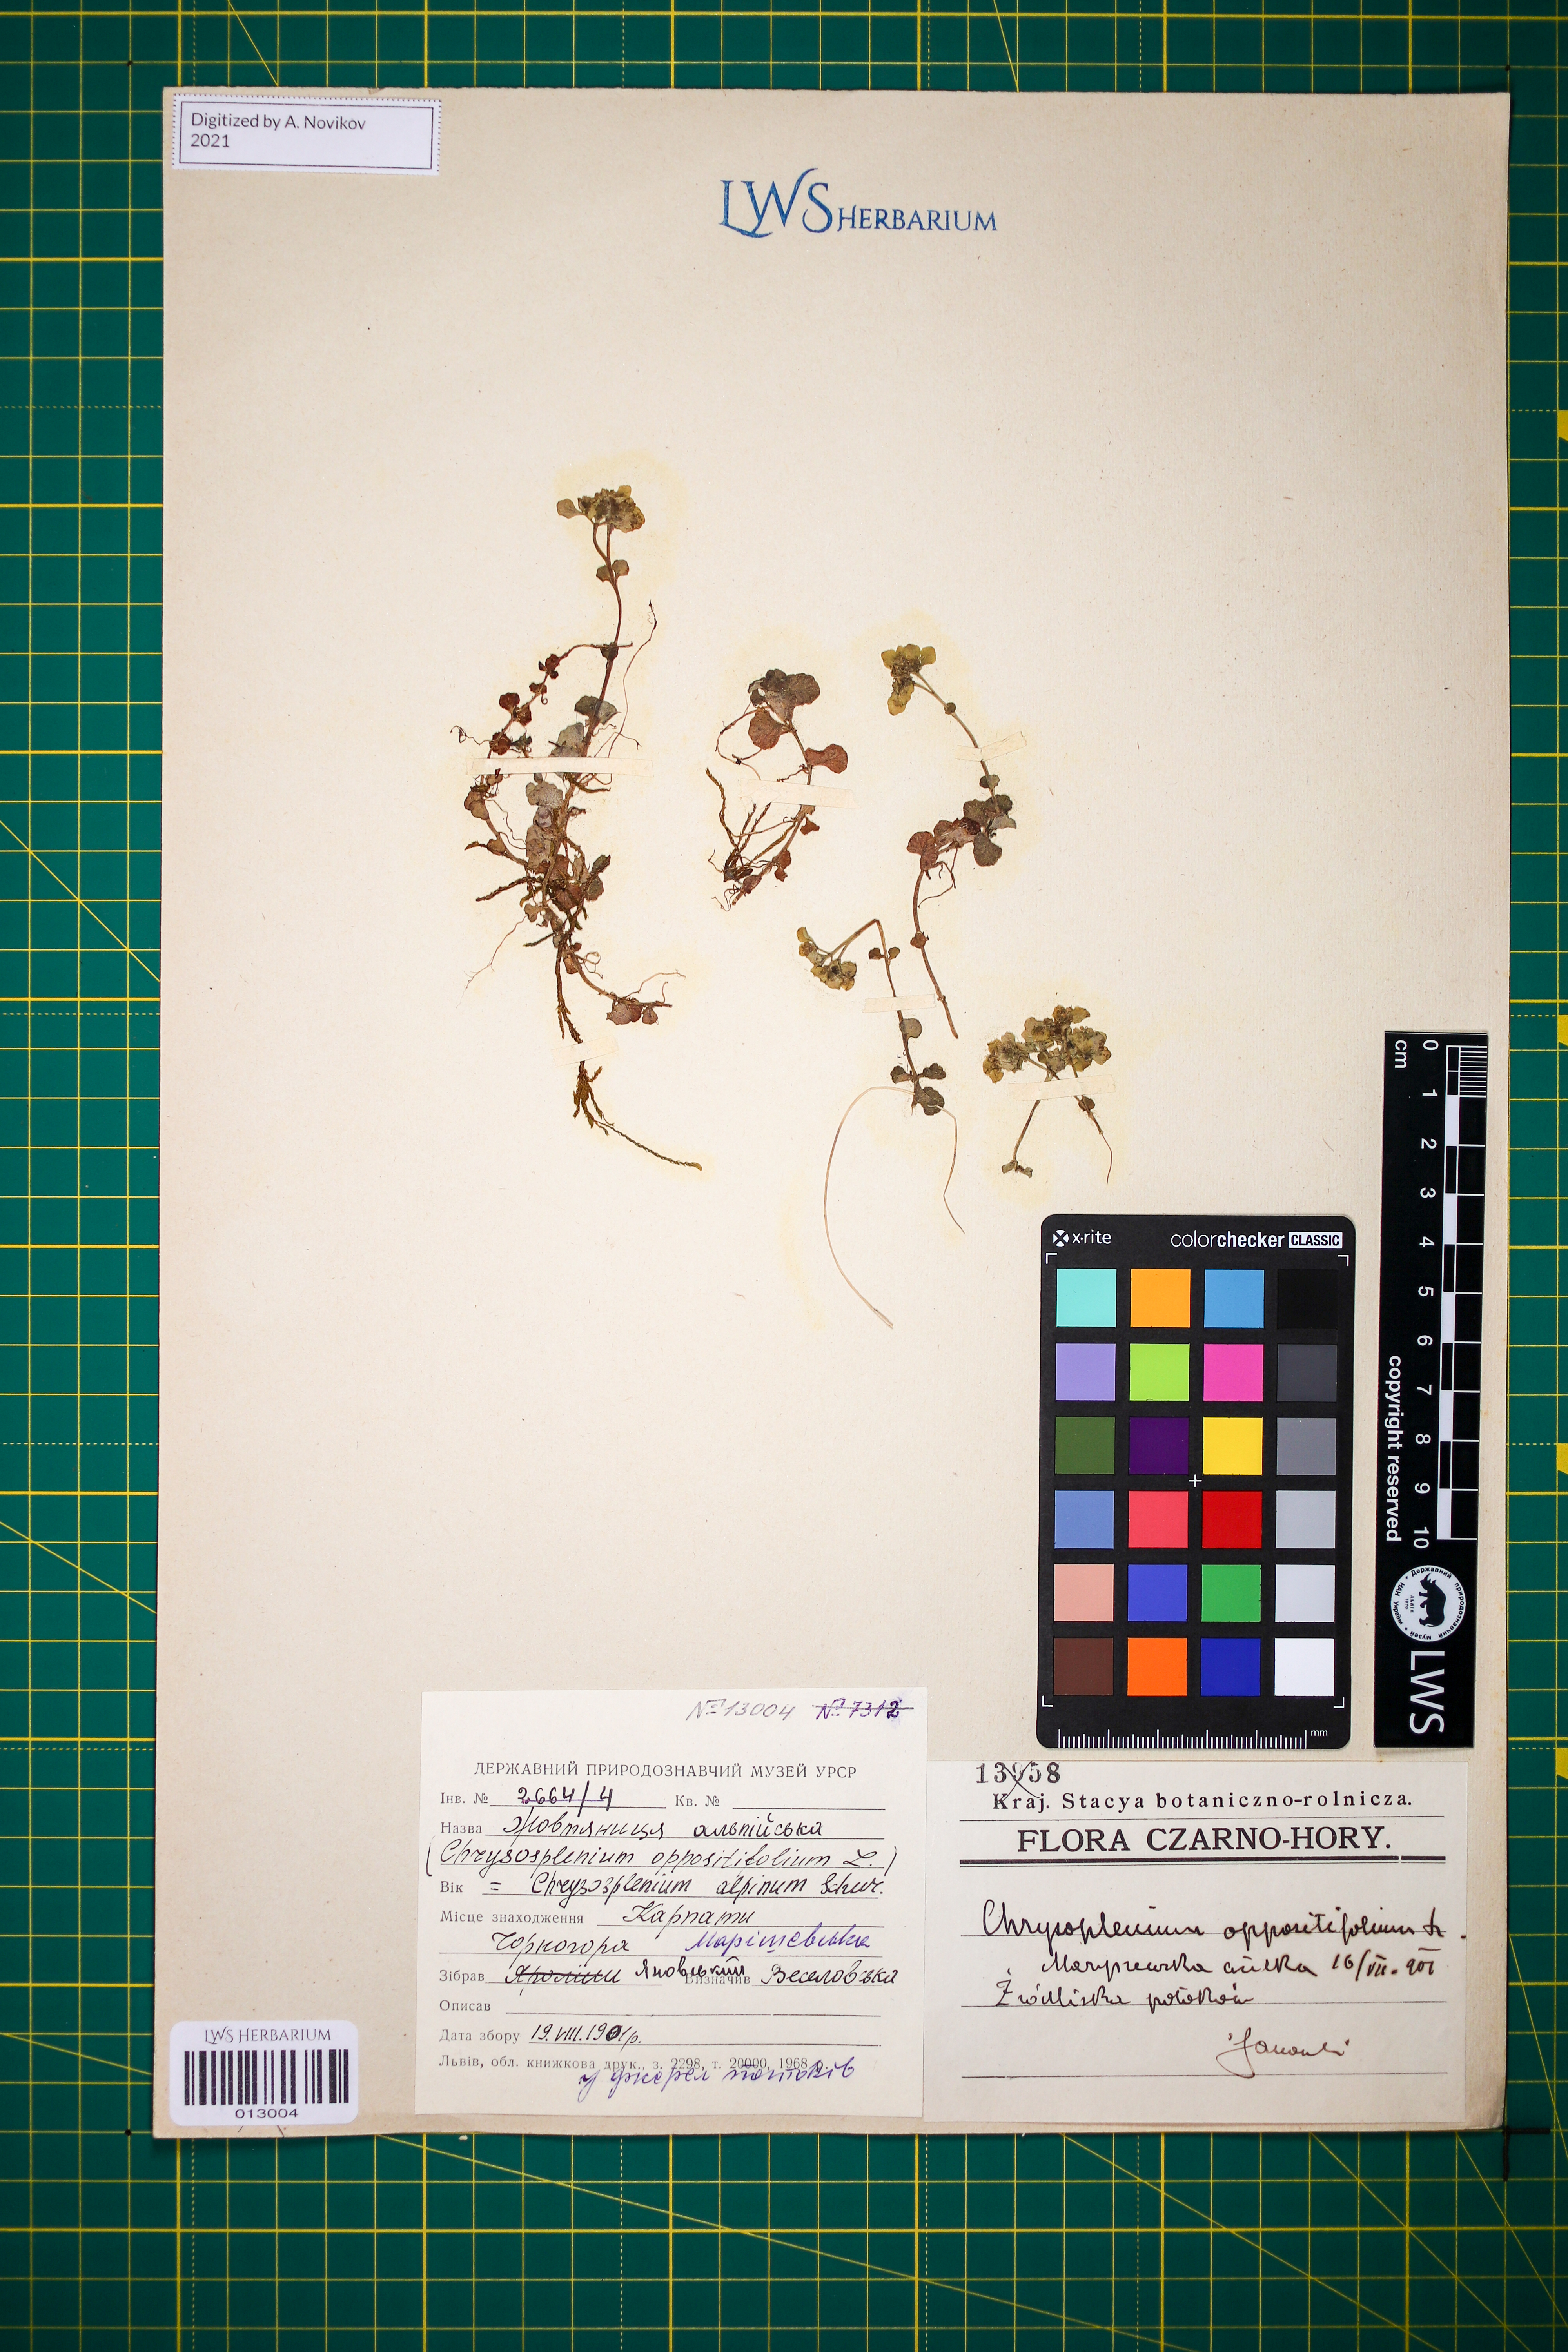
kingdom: Plantae
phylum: Tracheophyta
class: Magnoliopsida
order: Saxifragales
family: Saxifragaceae
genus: Chrysosplenium
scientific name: Chrysosplenium alpinum
